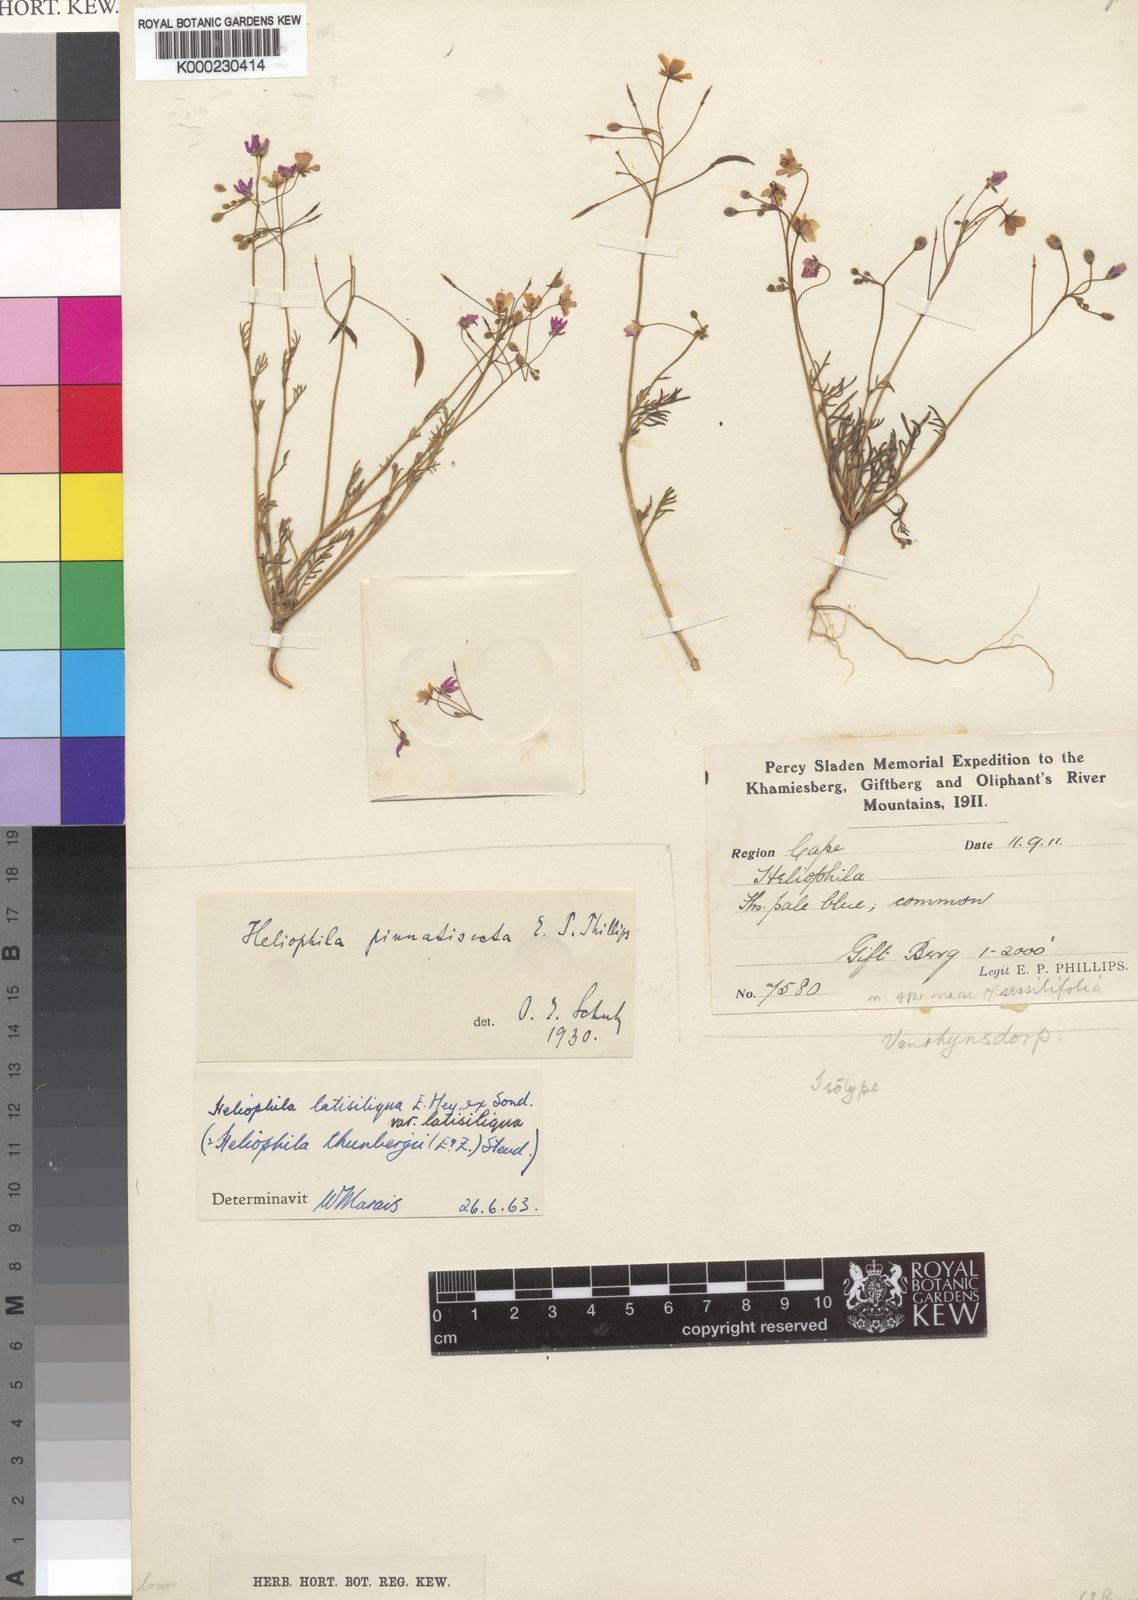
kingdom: Plantae
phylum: Tracheophyta
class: Magnoliopsida
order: Brassicales
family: Brassicaceae
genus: Heliophila
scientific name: Heliophila thunbergii
